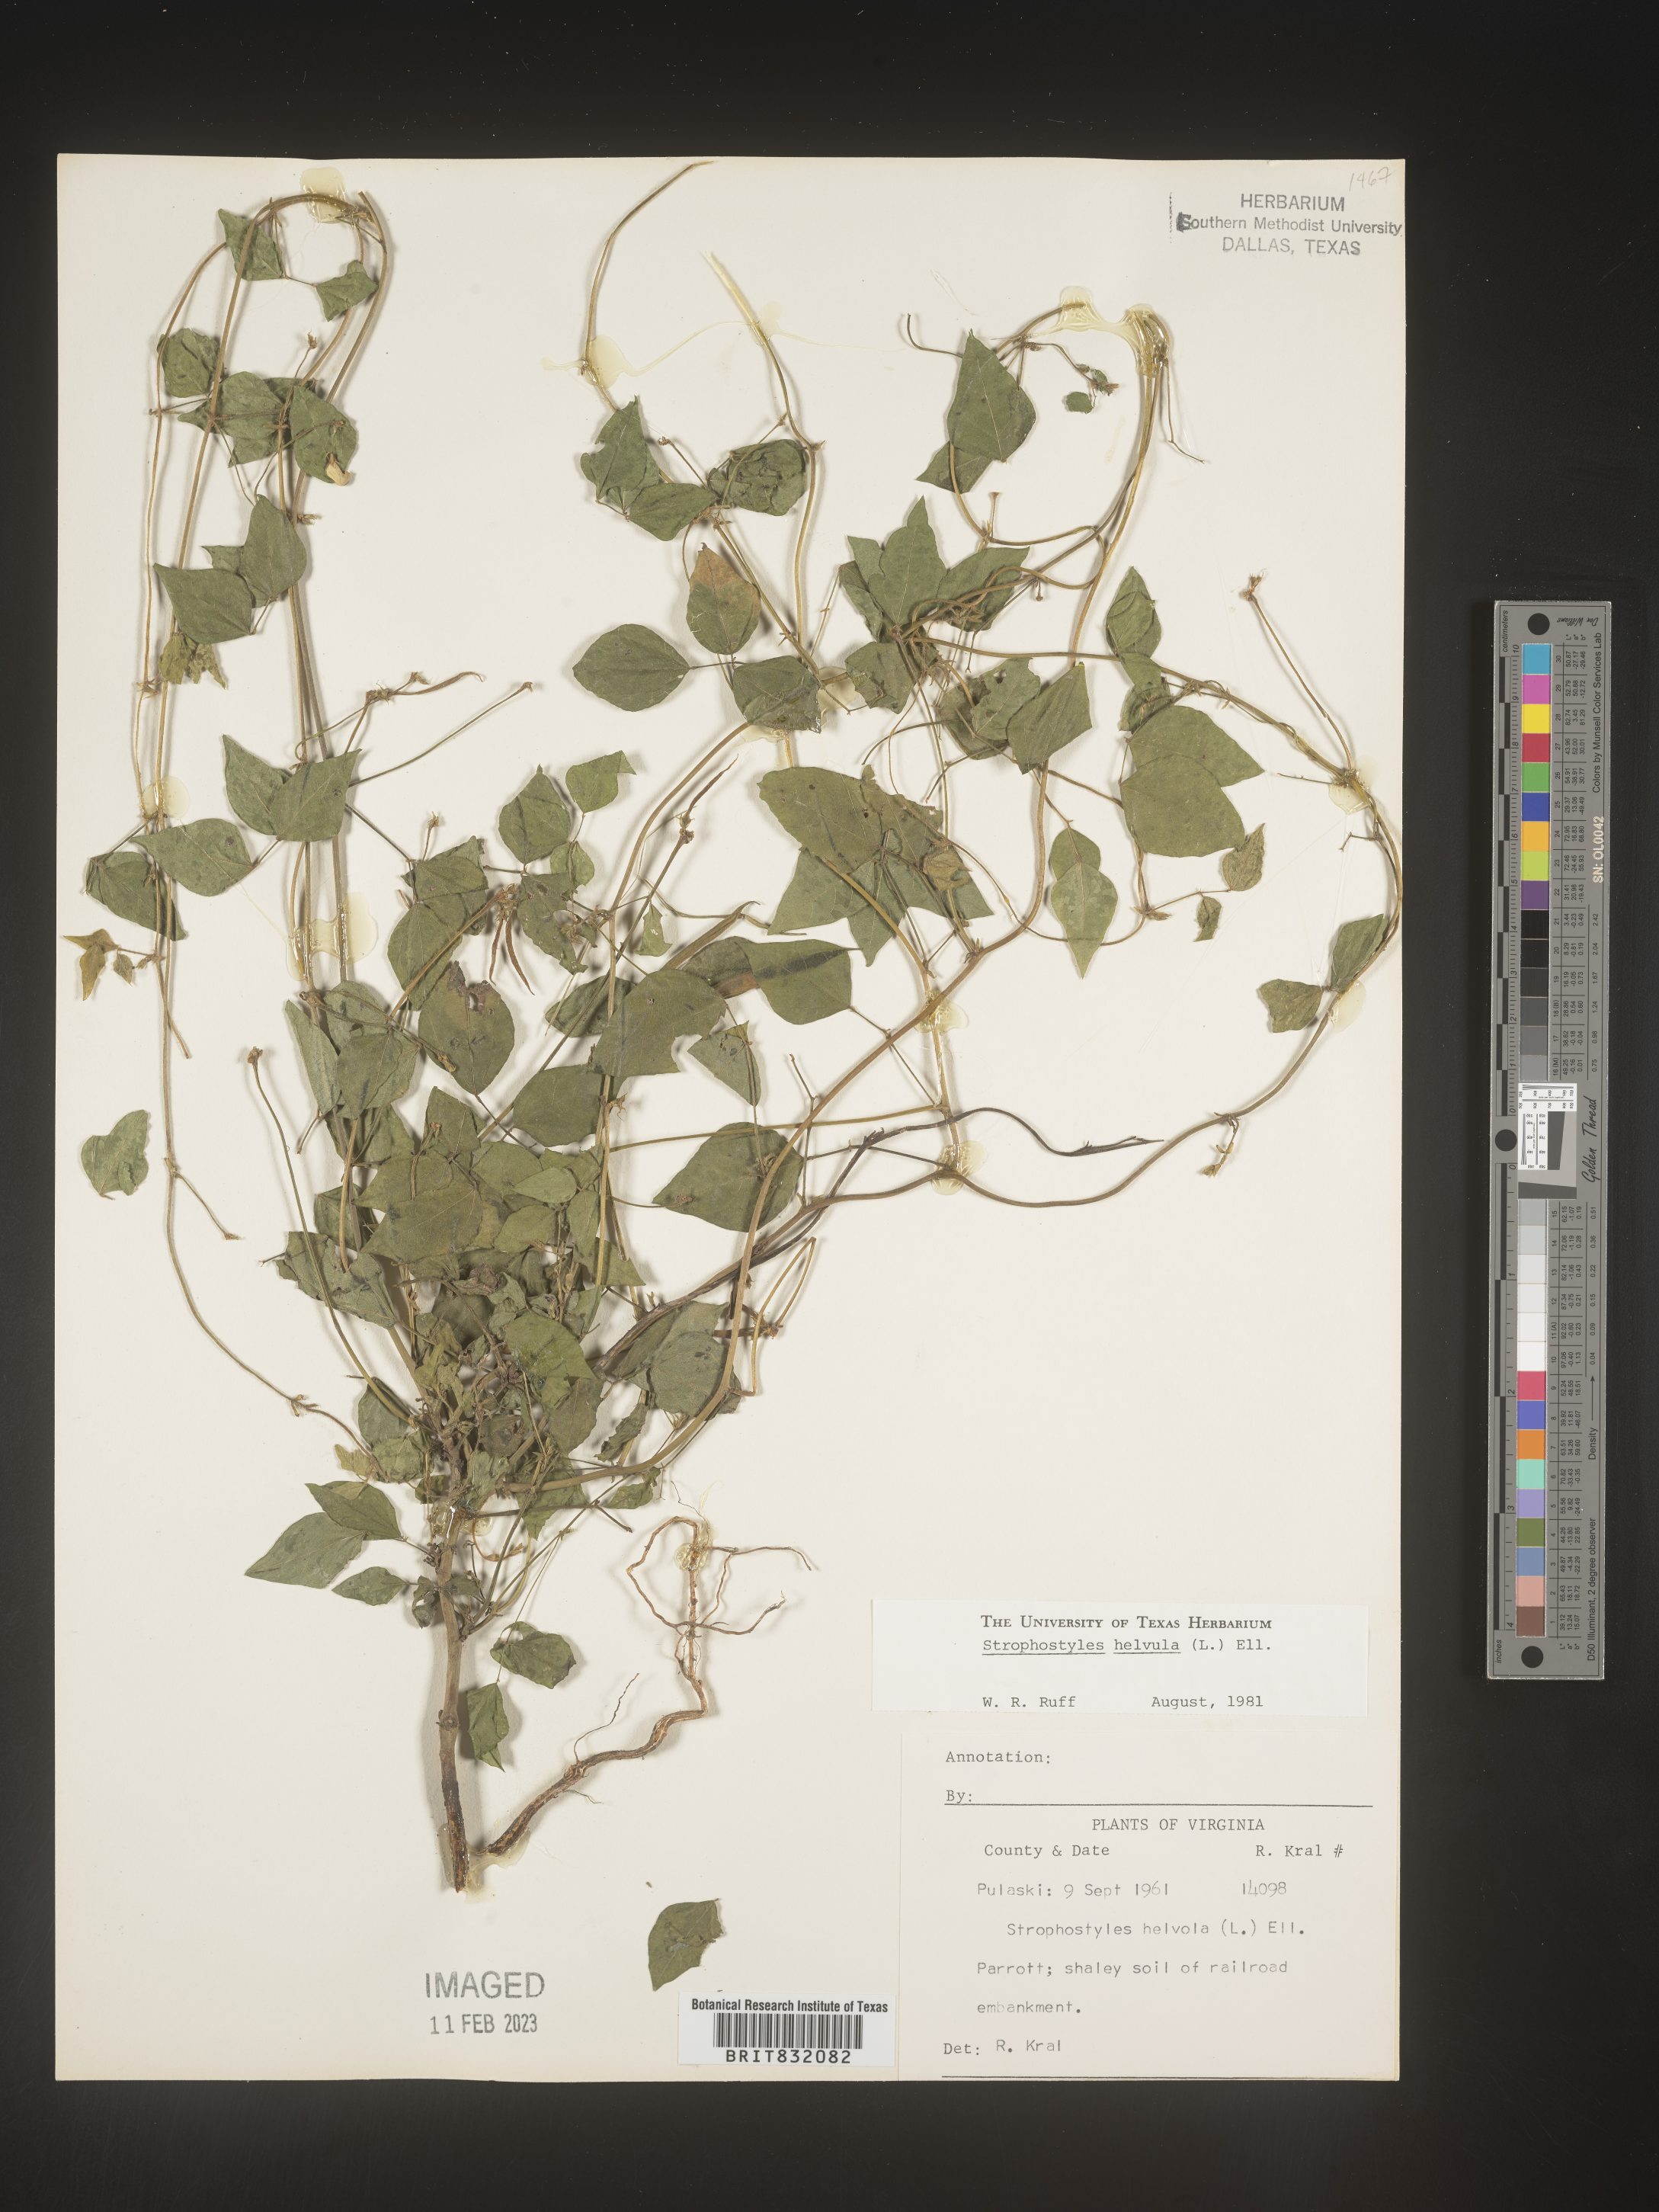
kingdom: Plantae
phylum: Tracheophyta
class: Magnoliopsida
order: Fabales
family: Fabaceae
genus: Strophostyles
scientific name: Strophostyles helvola
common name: Trailing wild bean
